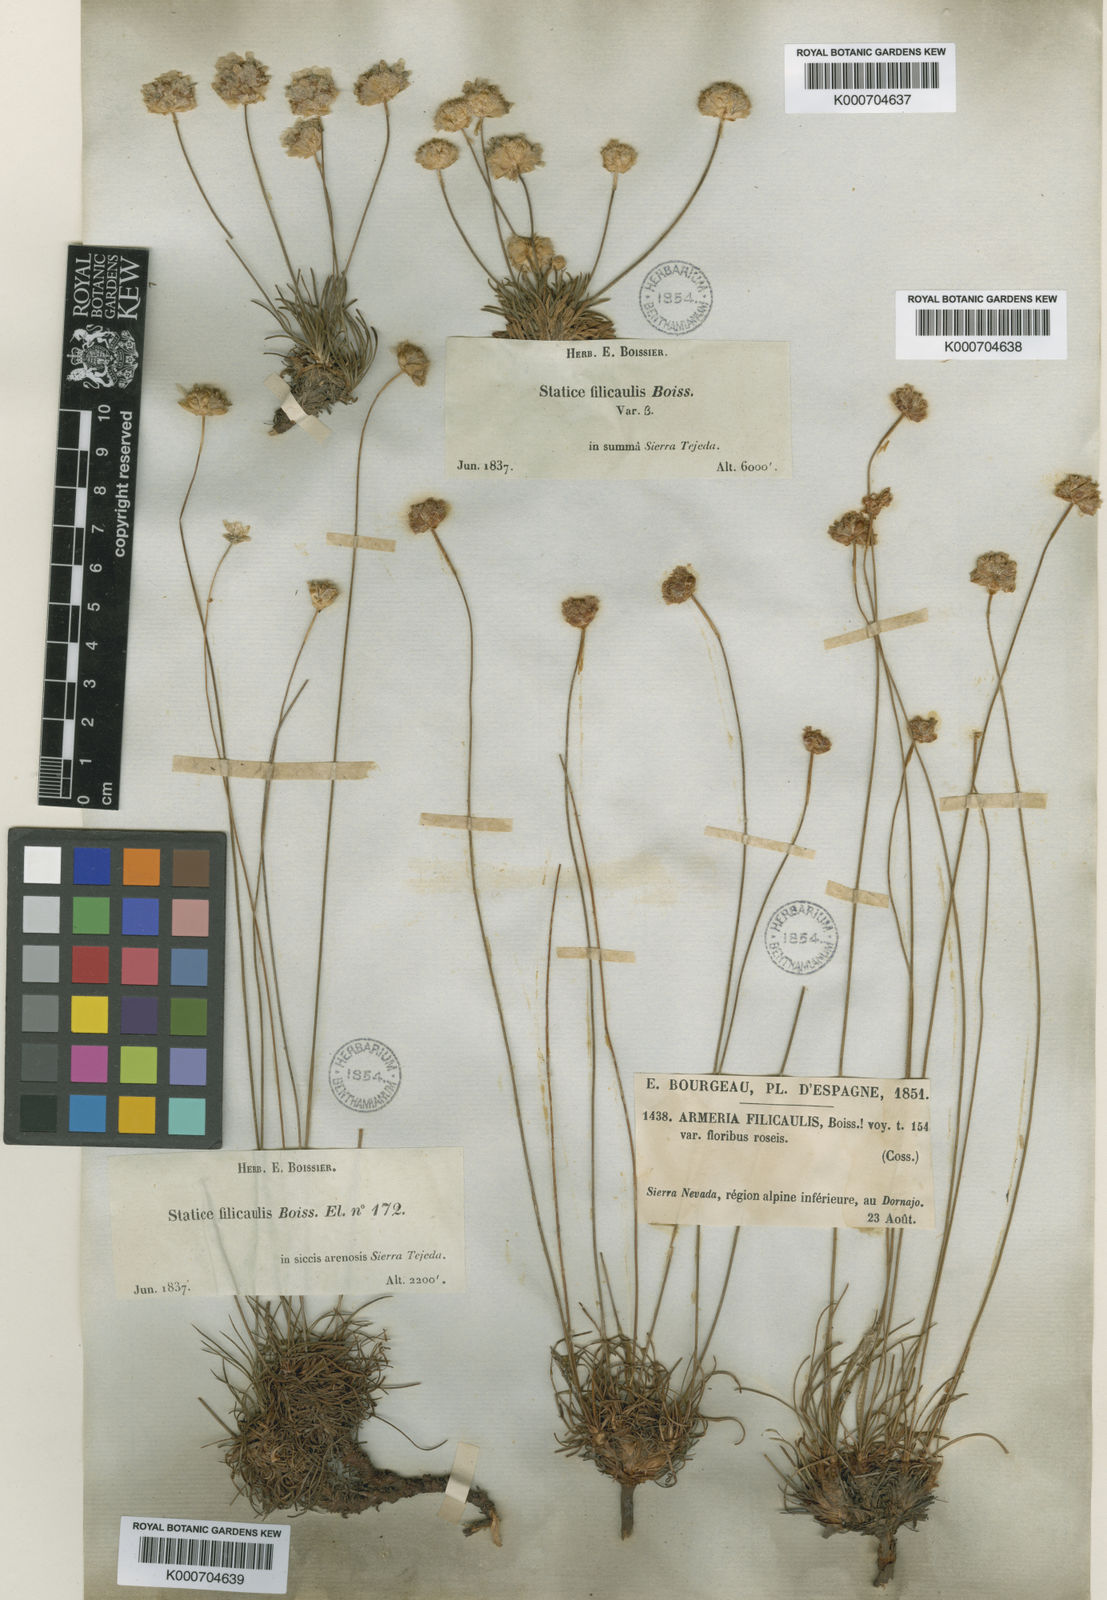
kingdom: Plantae
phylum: Tracheophyta
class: Magnoliopsida
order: Caryophyllales
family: Plumbaginaceae
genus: Armeria
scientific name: Armeria filicaulis
